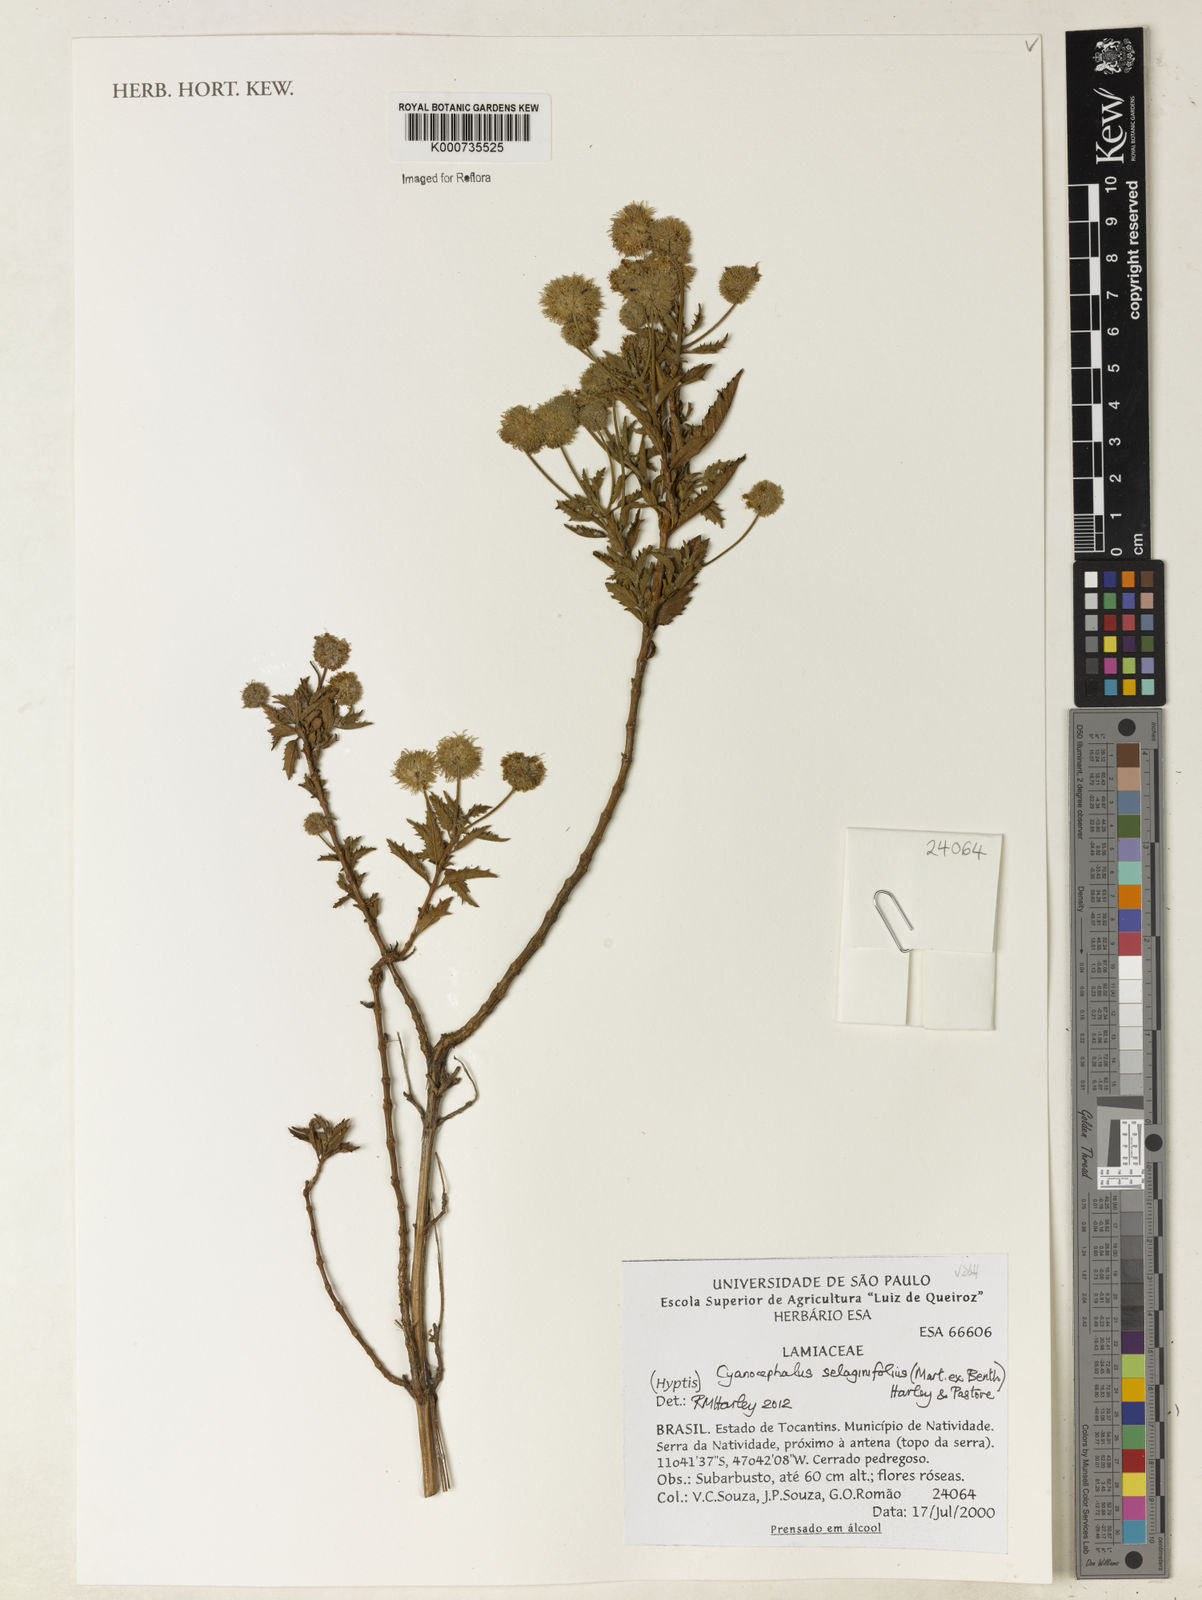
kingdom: Plantae
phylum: Tracheophyta
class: Magnoliopsida
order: Lamiales
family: Lamiaceae
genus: Cyanocephalus
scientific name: Cyanocephalus selaginifolius
